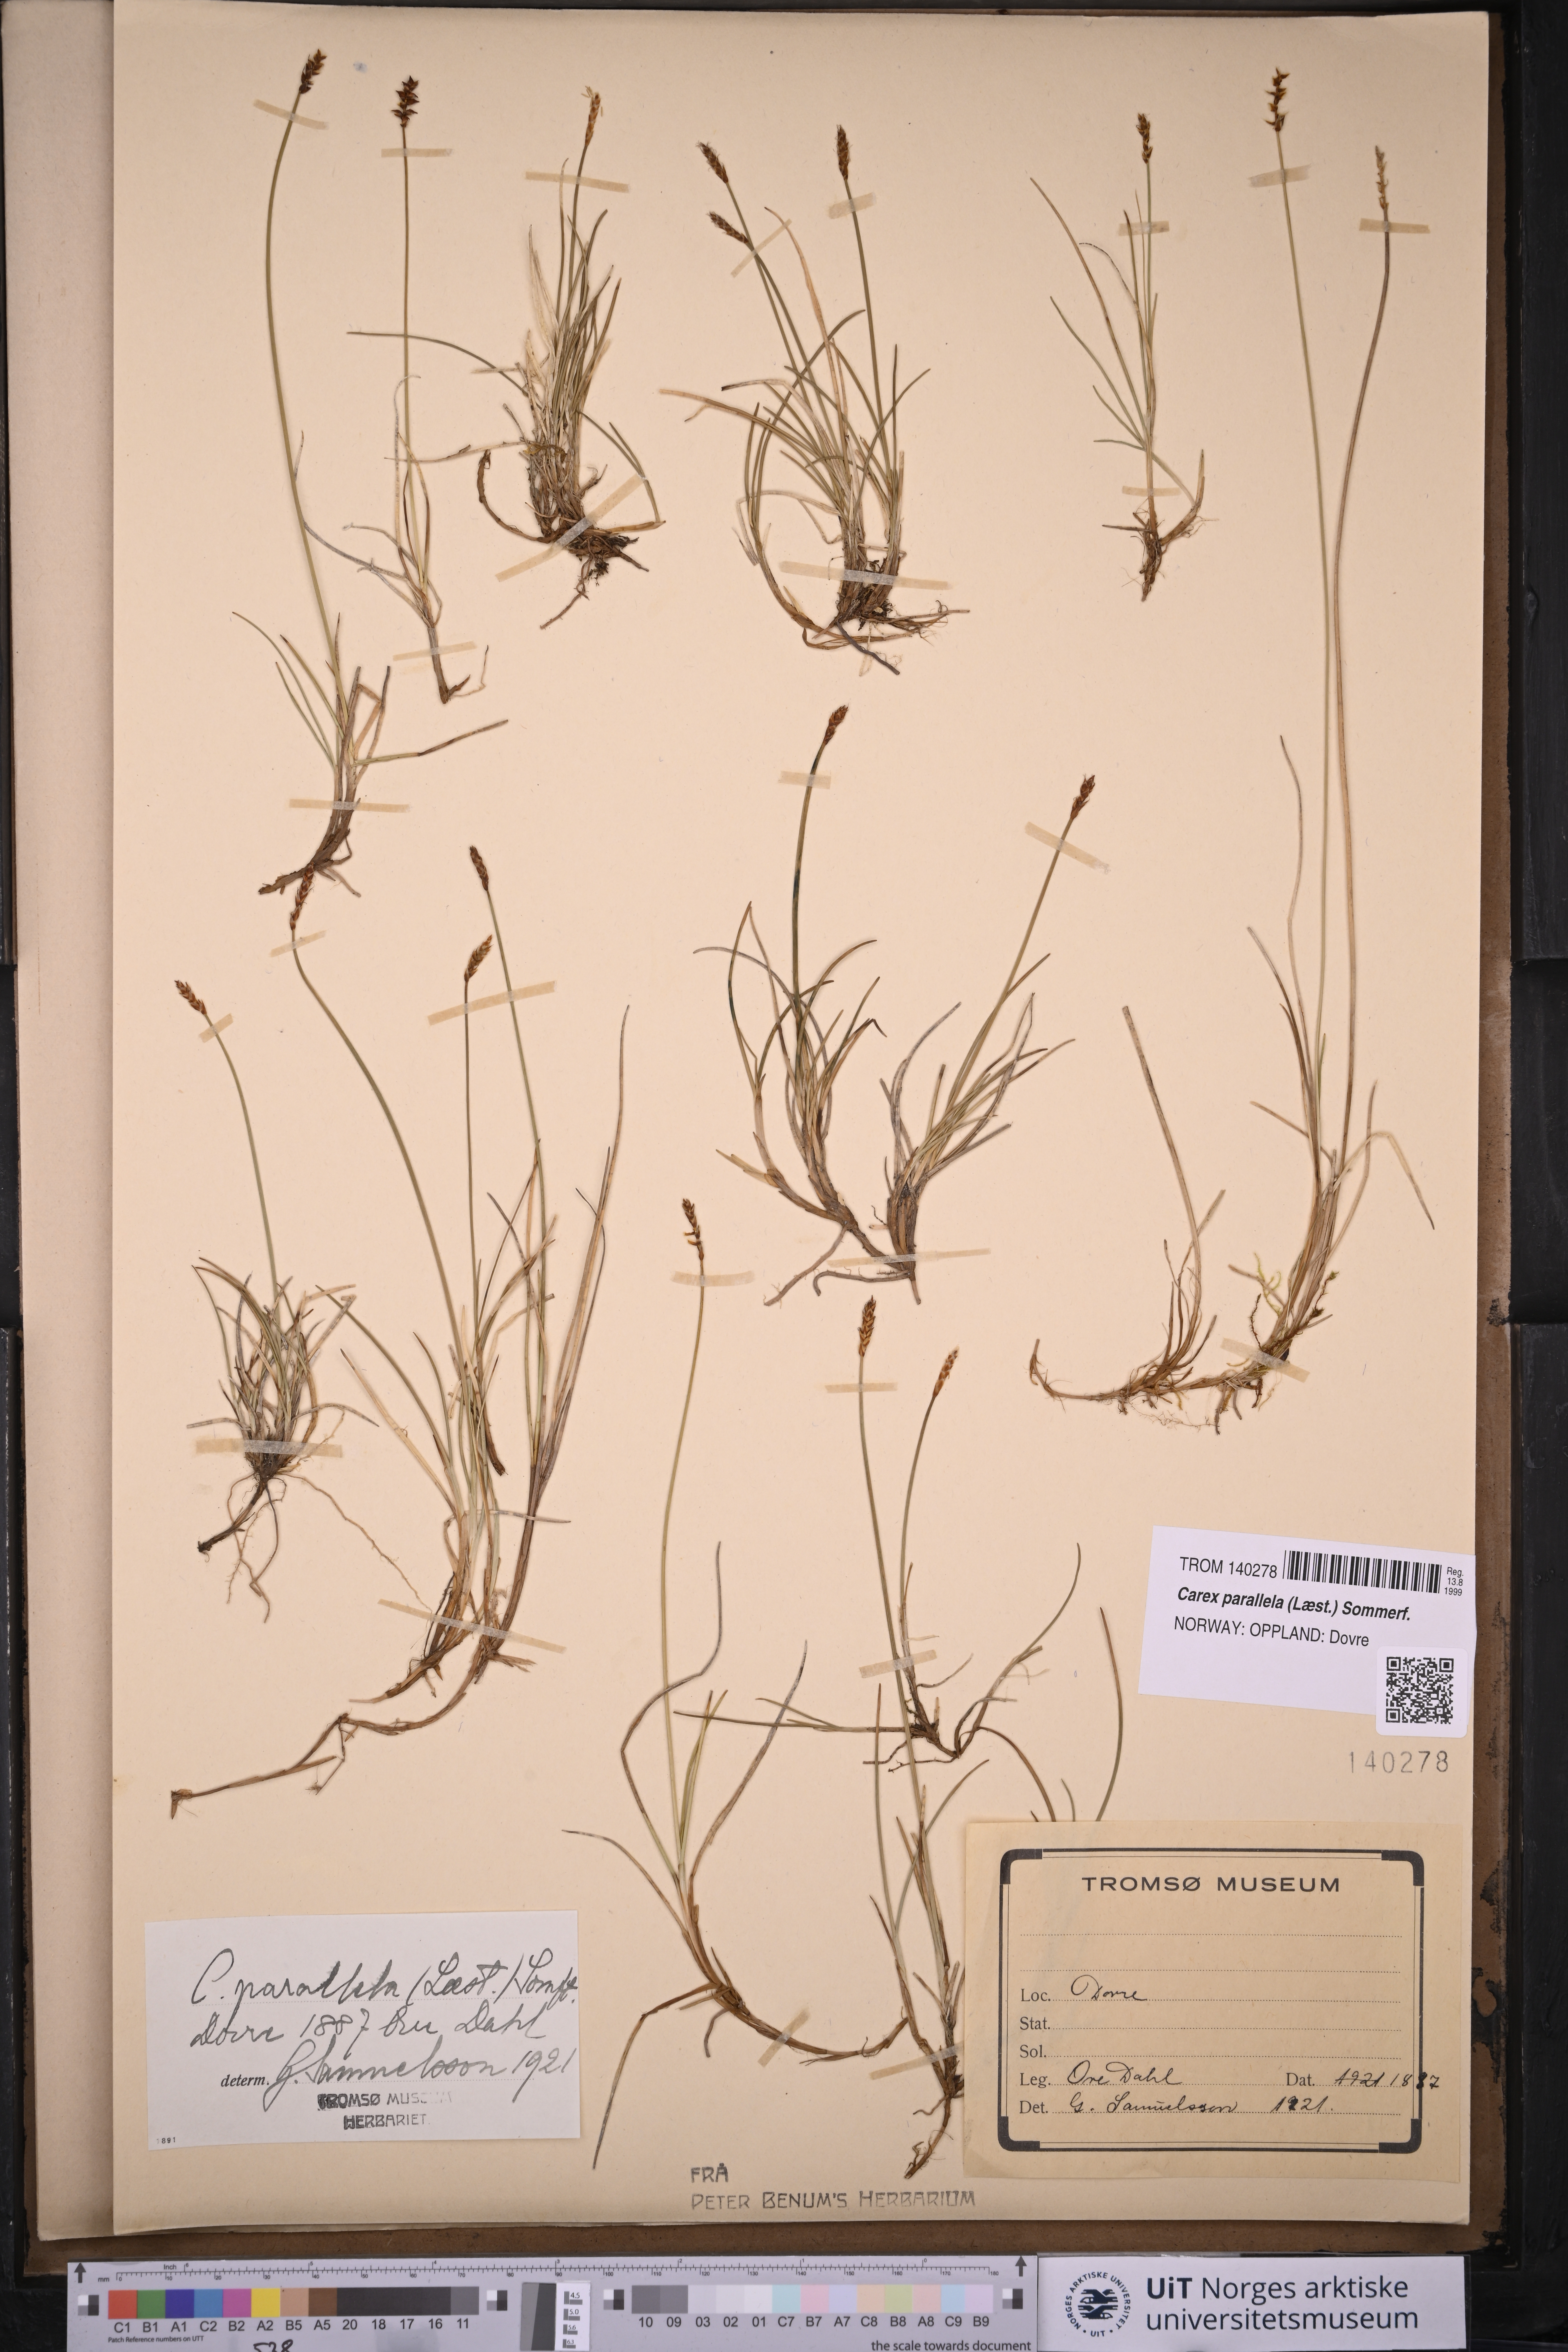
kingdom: Plantae
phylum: Tracheophyta
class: Liliopsida
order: Poales
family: Cyperaceae
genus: Carex
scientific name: Carex parallela
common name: Parallel sedge
